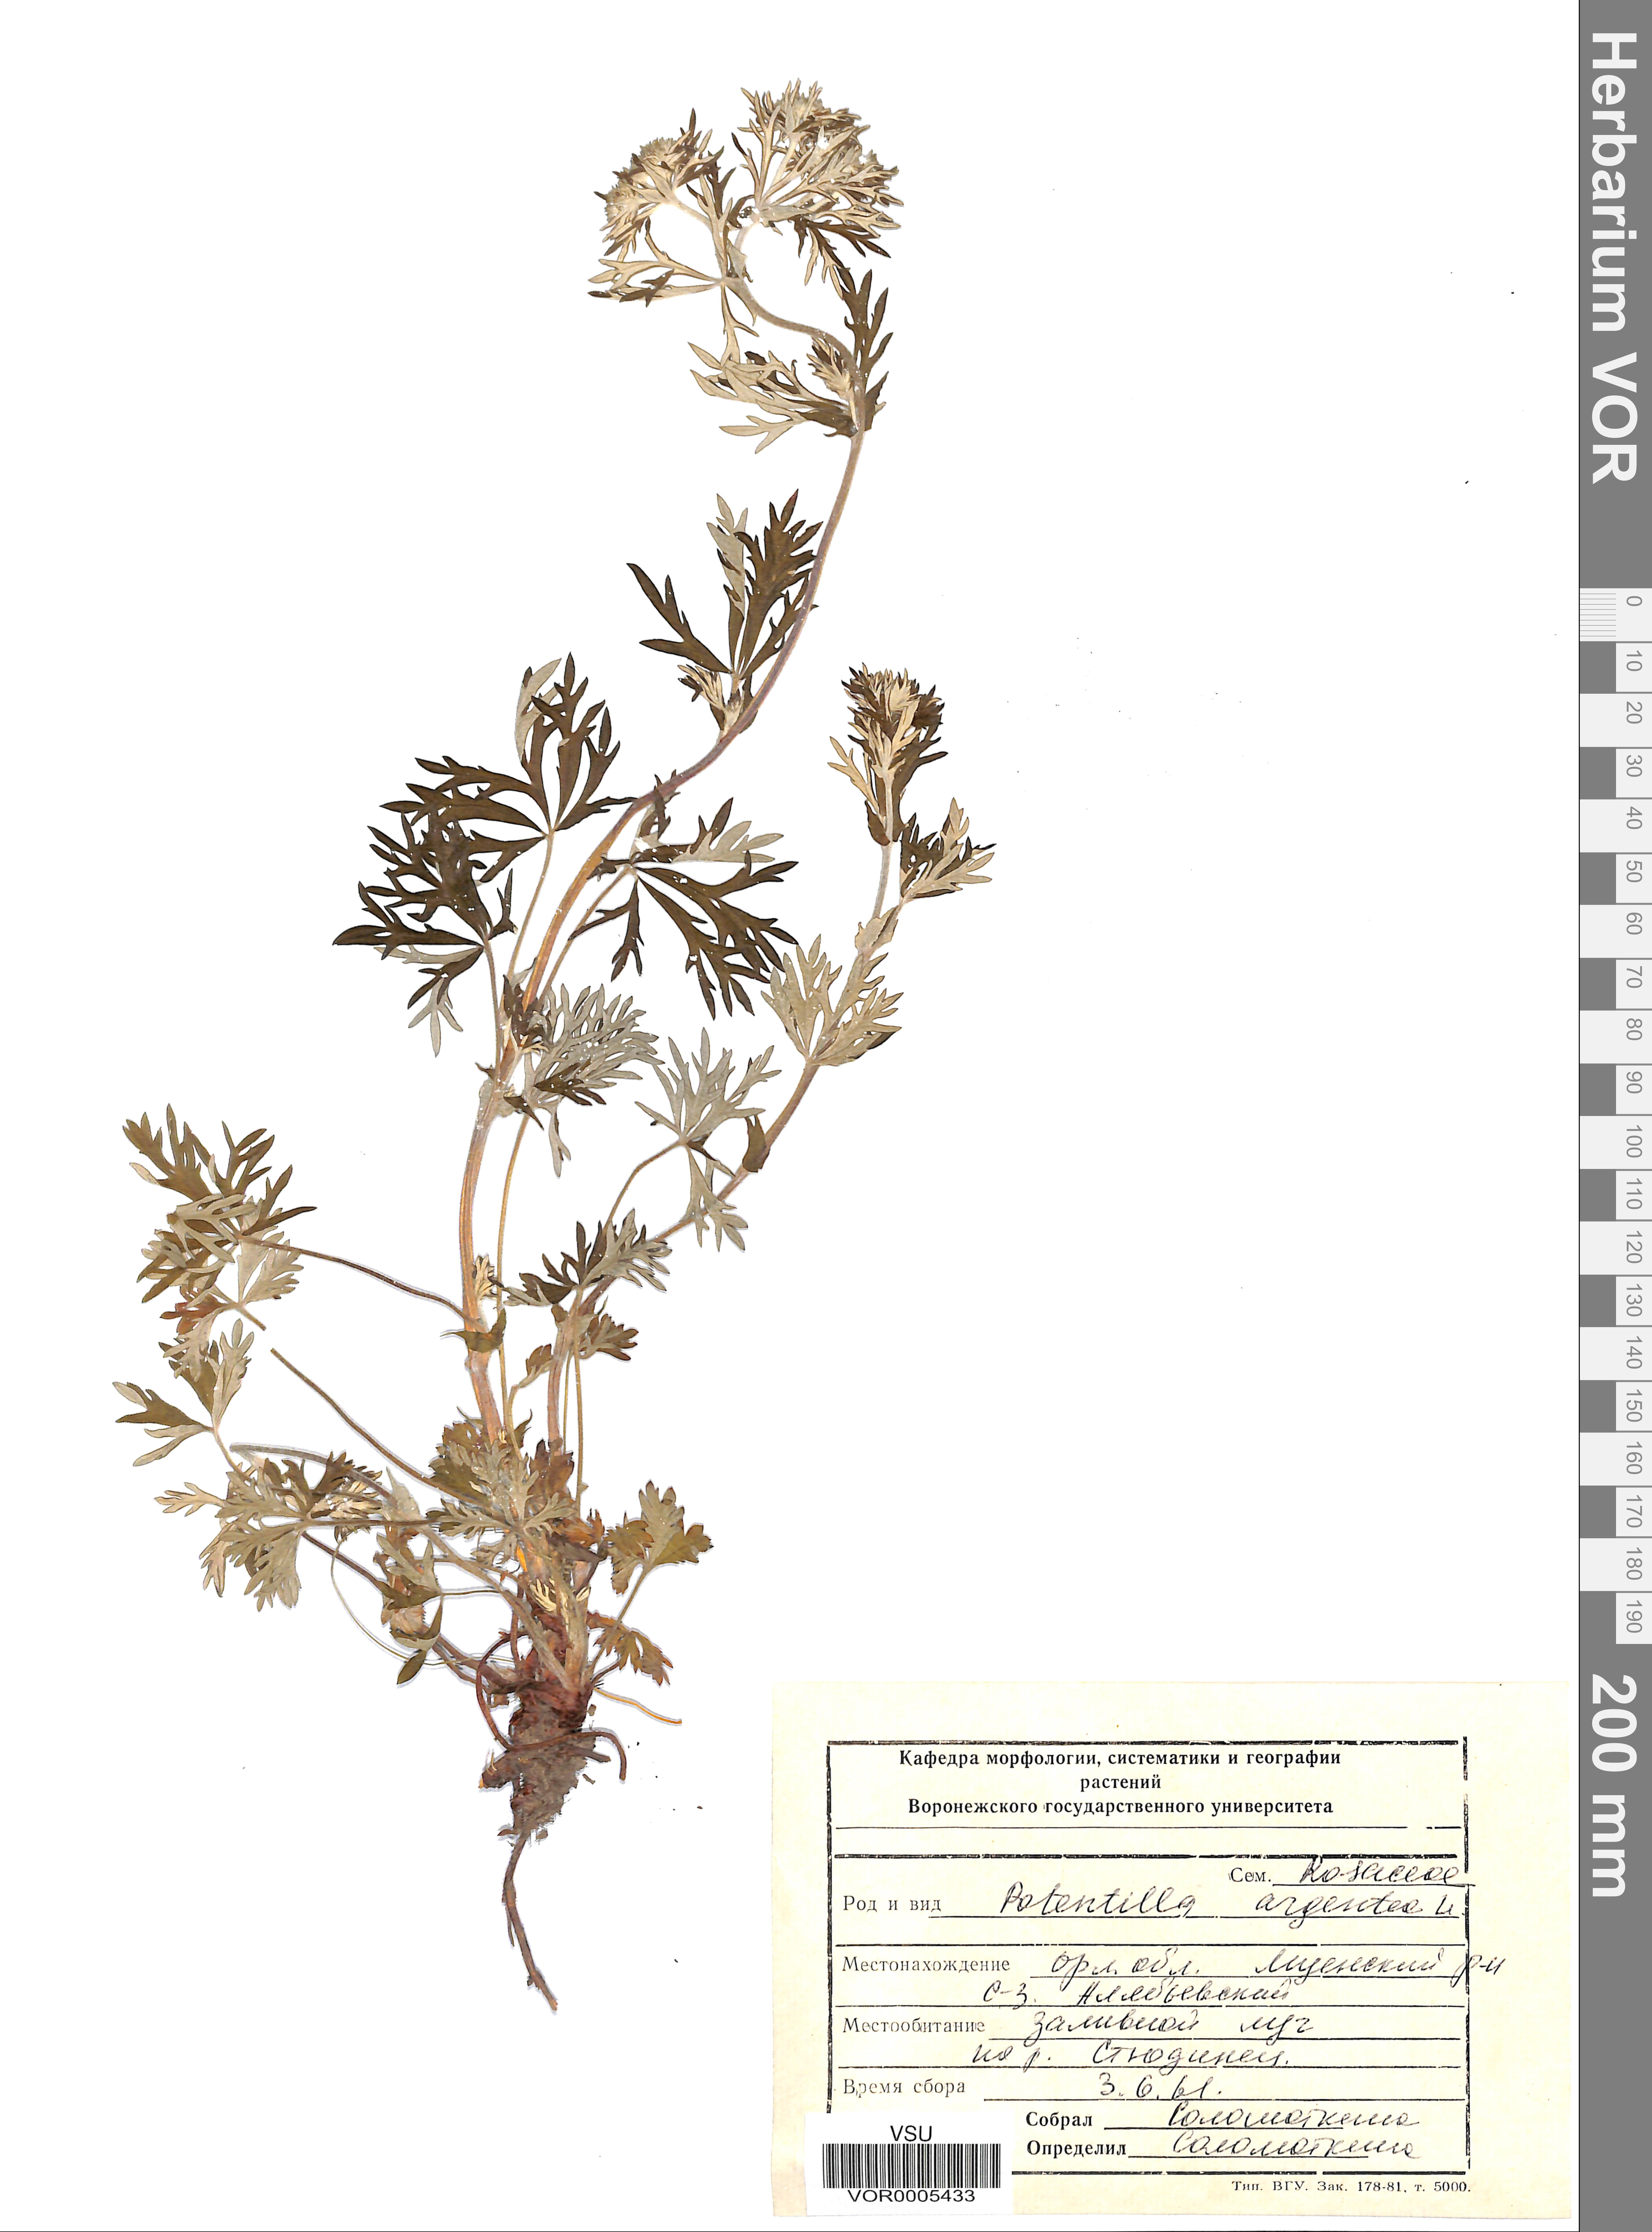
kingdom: Plantae
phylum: Tracheophyta
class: Magnoliopsida
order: Rosales
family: Rosaceae
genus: Potentilla
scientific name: Potentilla argentea
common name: Hoary cinquefoil
